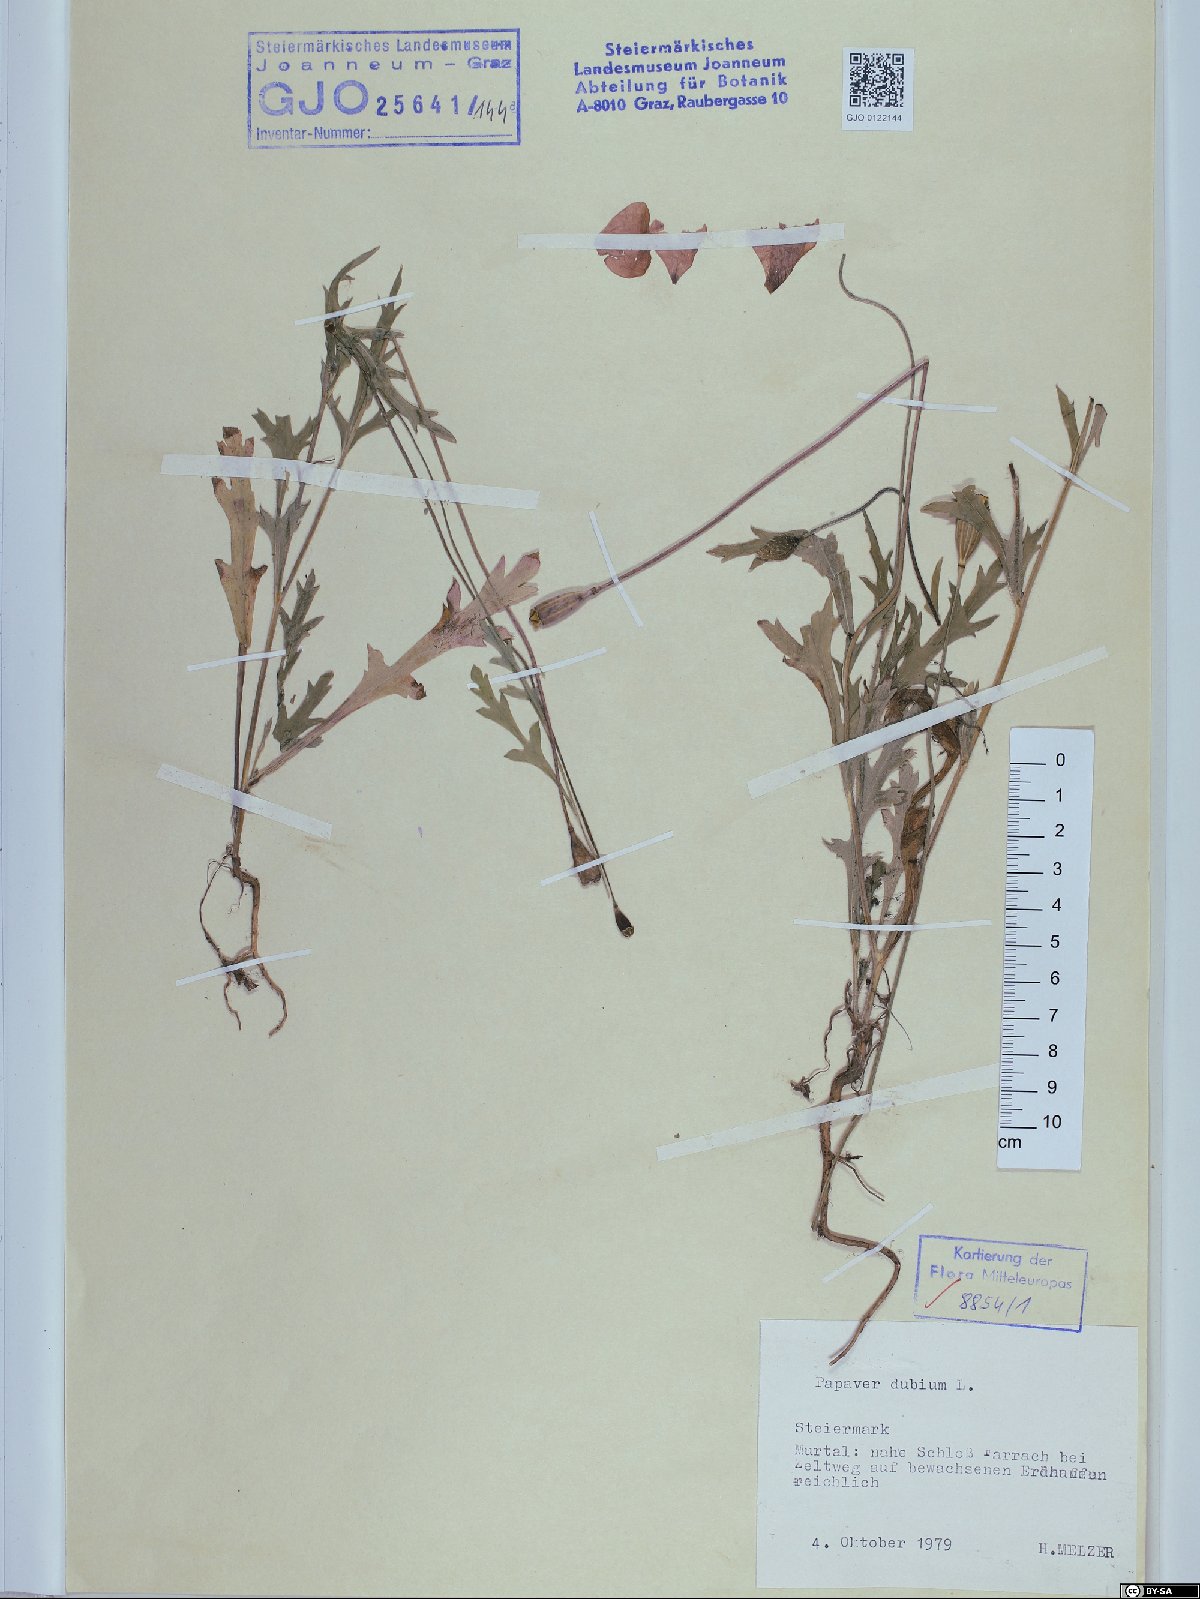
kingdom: Plantae
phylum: Tracheophyta
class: Magnoliopsida
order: Ranunculales
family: Papaveraceae
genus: Papaver
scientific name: Papaver dubium
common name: Long-headed poppy
